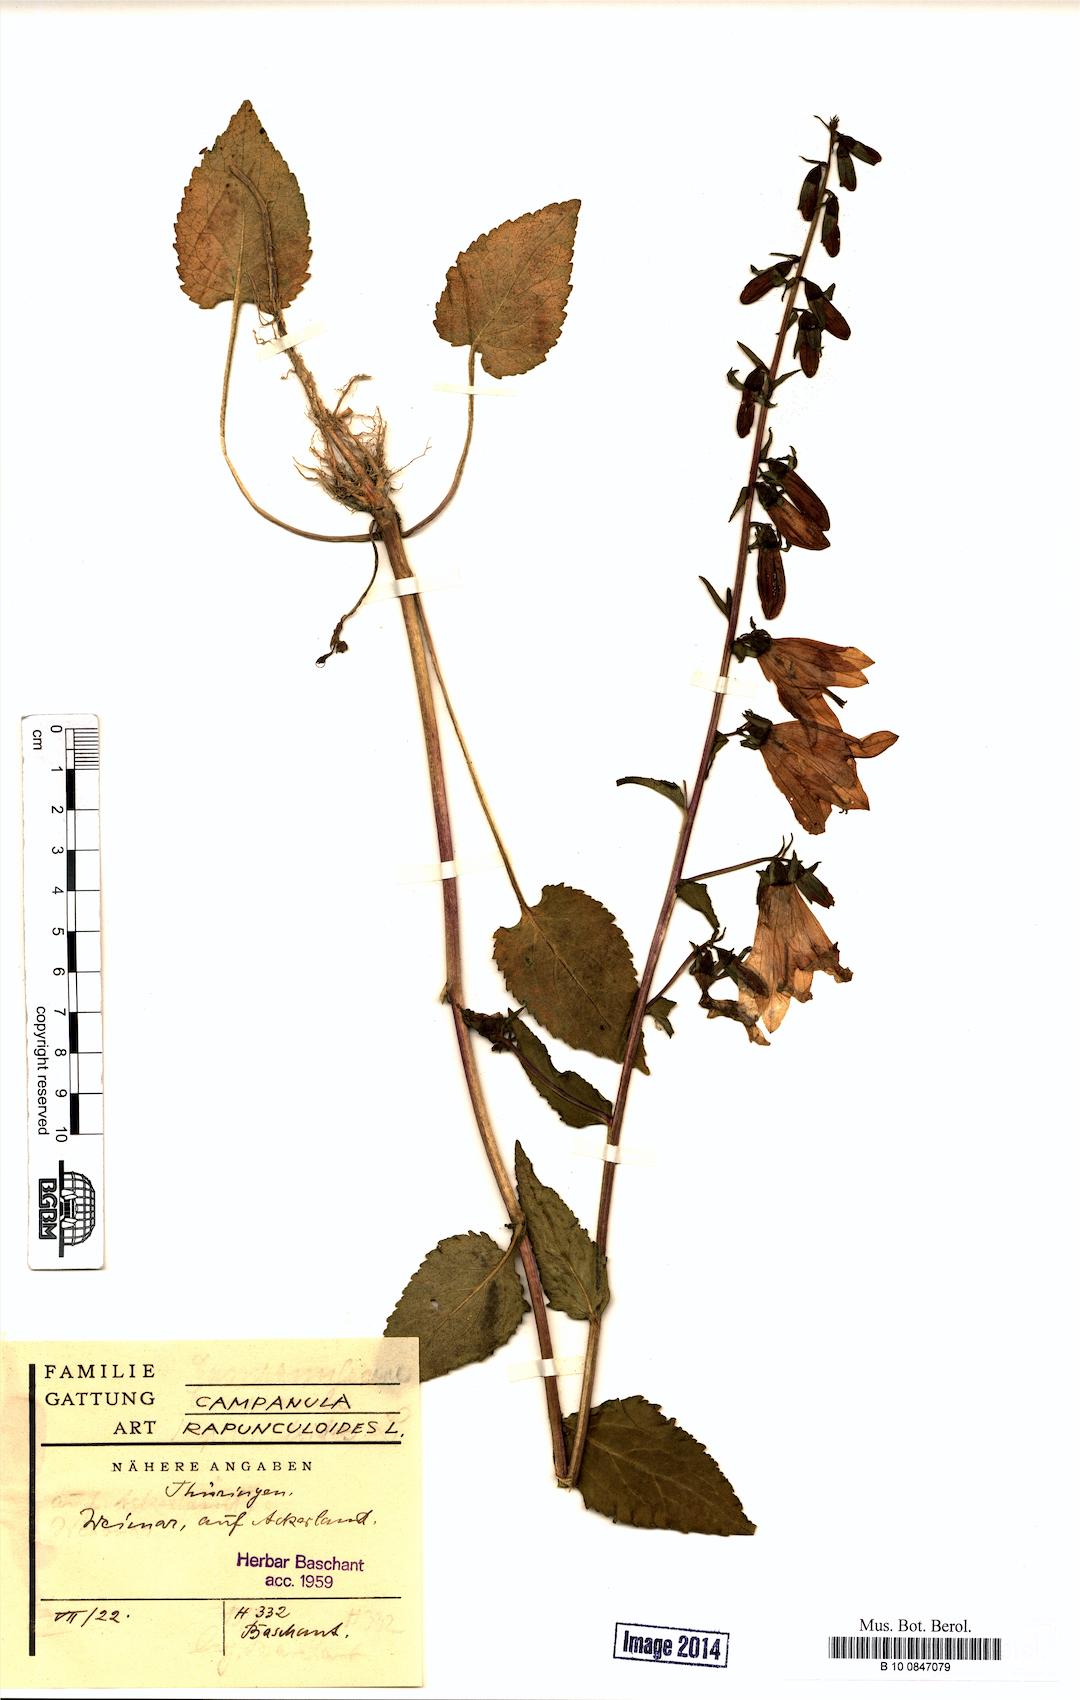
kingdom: Plantae
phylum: Tracheophyta
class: Magnoliopsida
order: Asterales
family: Campanulaceae
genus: Campanula
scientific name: Campanula rapunculoides
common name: Creeping bellflower
